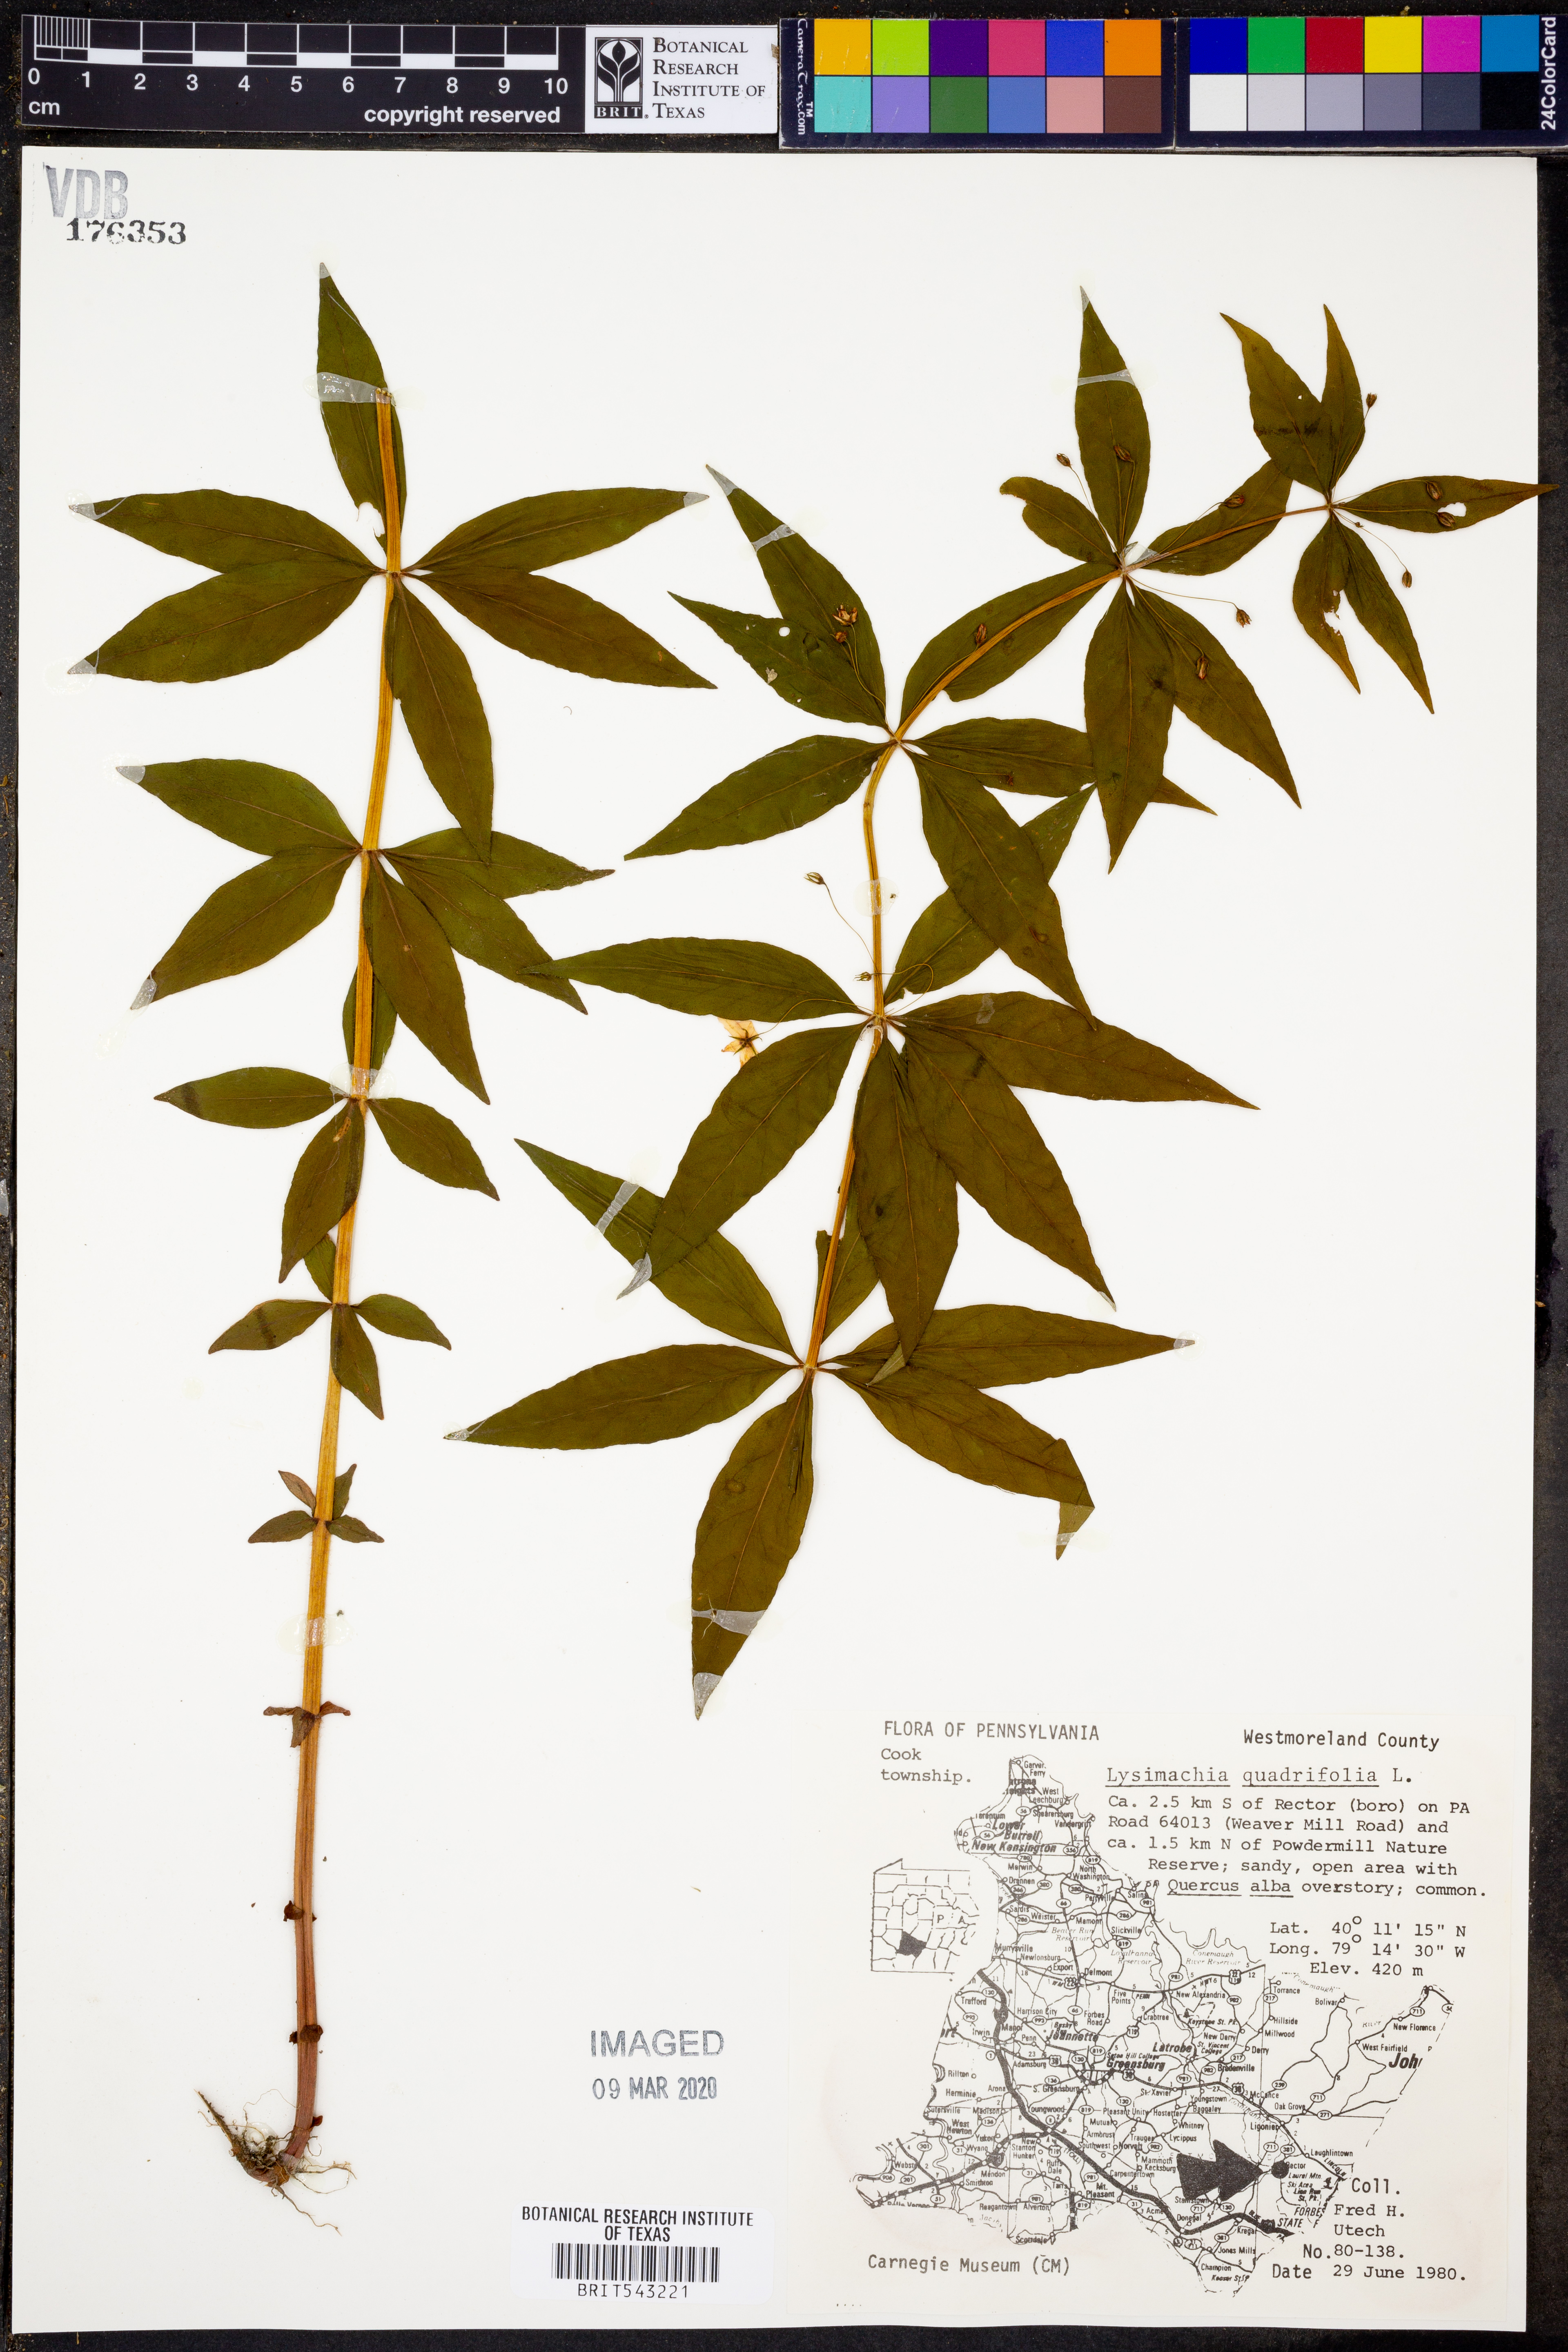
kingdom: Plantae
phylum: Tracheophyta
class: Magnoliopsida
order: Ericales
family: Primulaceae
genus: Lysimachia
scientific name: Lysimachia quadrifolia
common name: Whorled loosestrife
